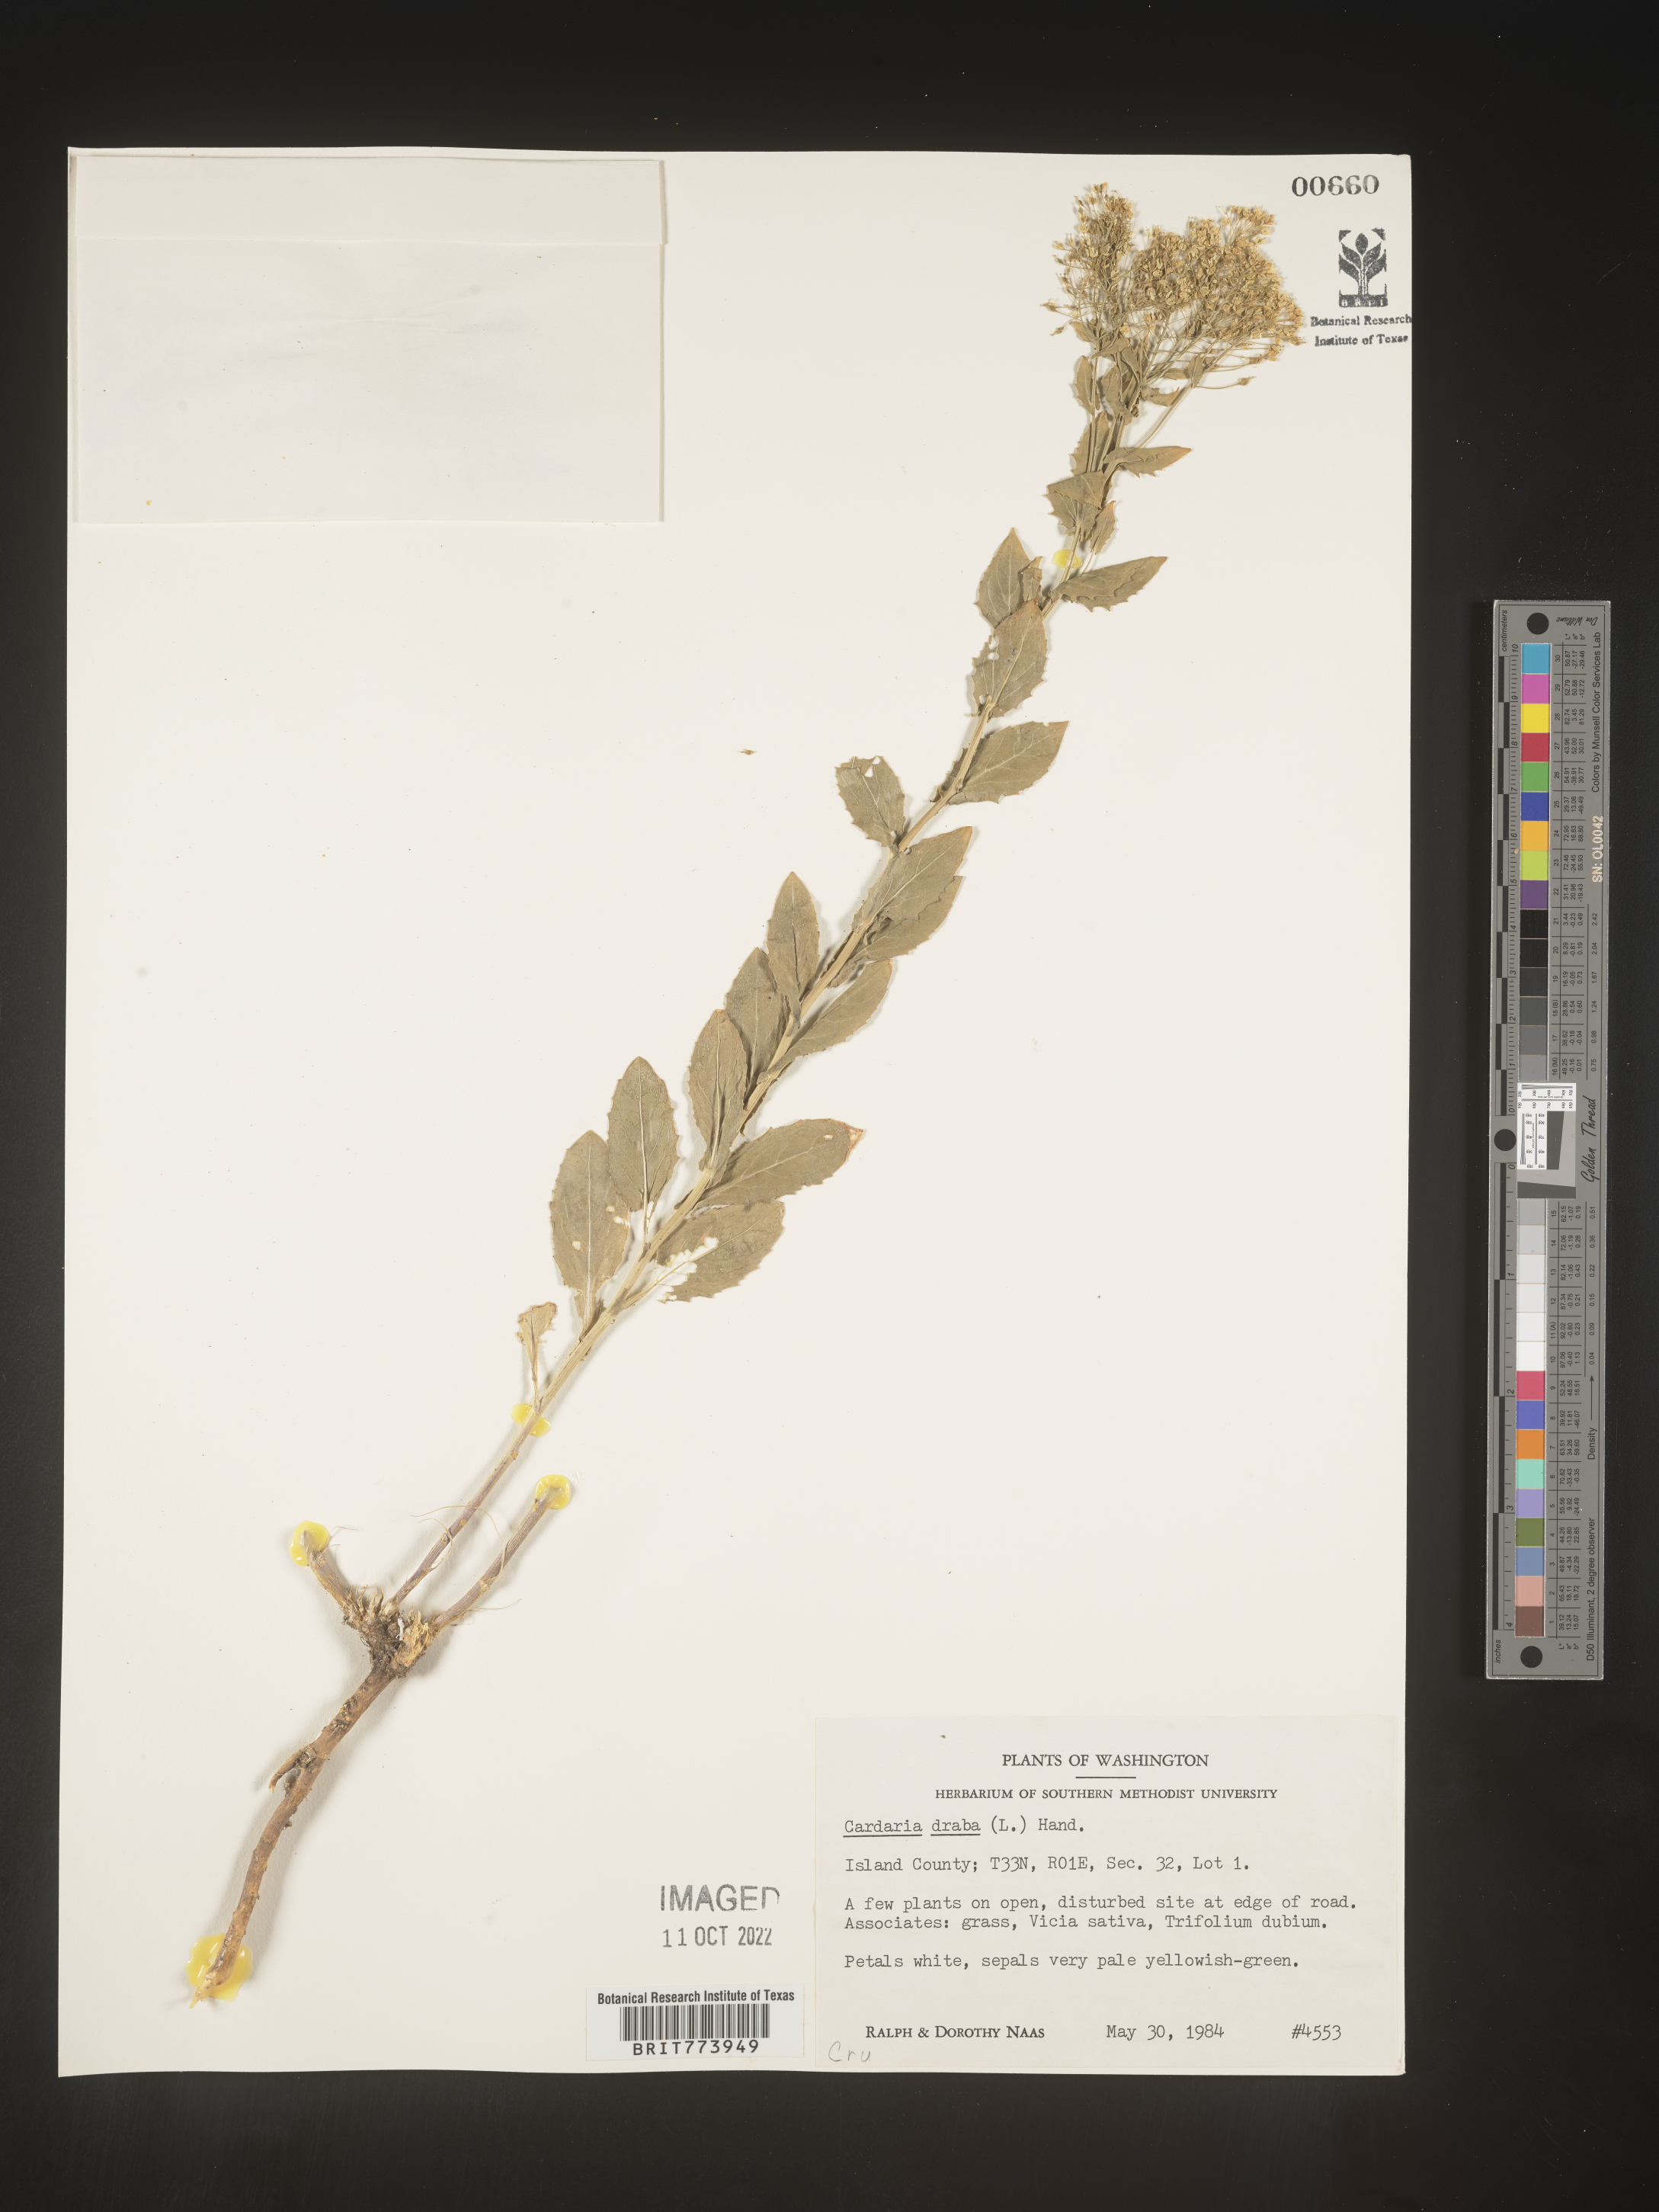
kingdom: Plantae
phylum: Tracheophyta
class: Magnoliopsida
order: Brassicales
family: Brassicaceae
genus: Lepidium
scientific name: Lepidium draba
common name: Hoary cress
